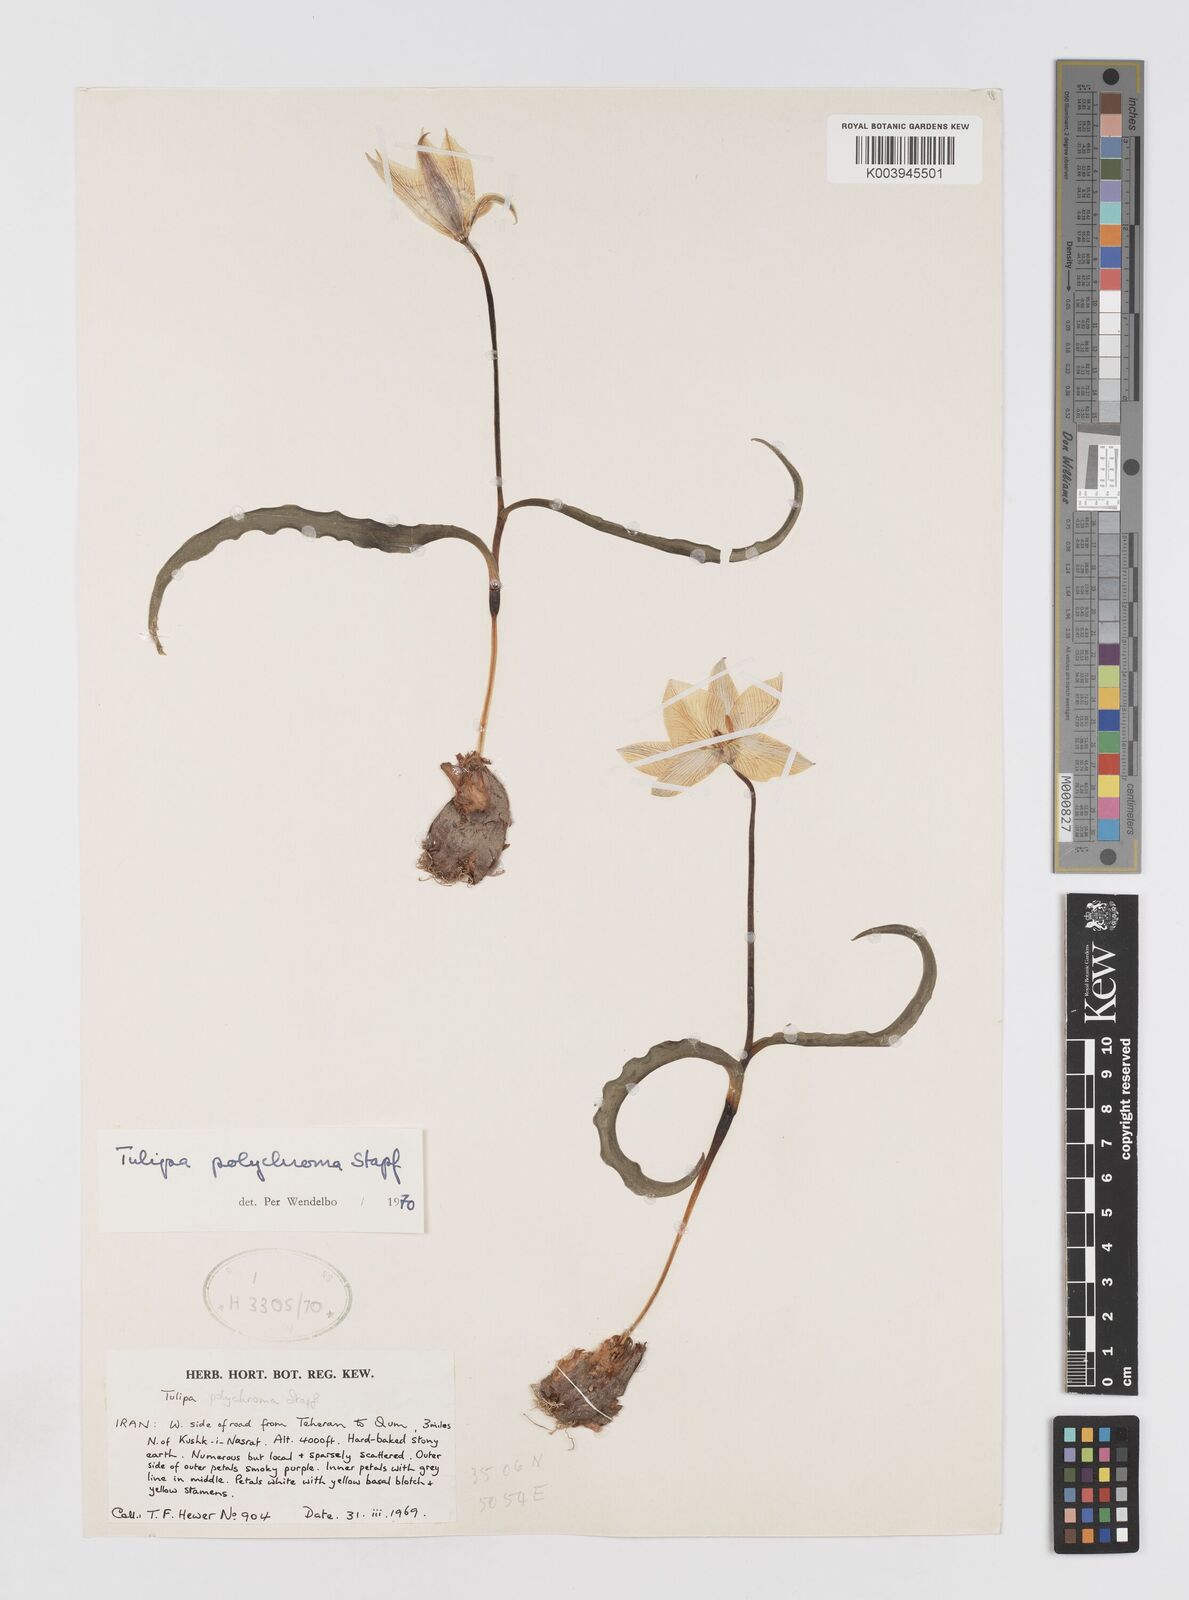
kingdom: Plantae
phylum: Tracheophyta
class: Liliopsida
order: Liliales
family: Liliaceae
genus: Tulipa
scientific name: Tulipa biflora
